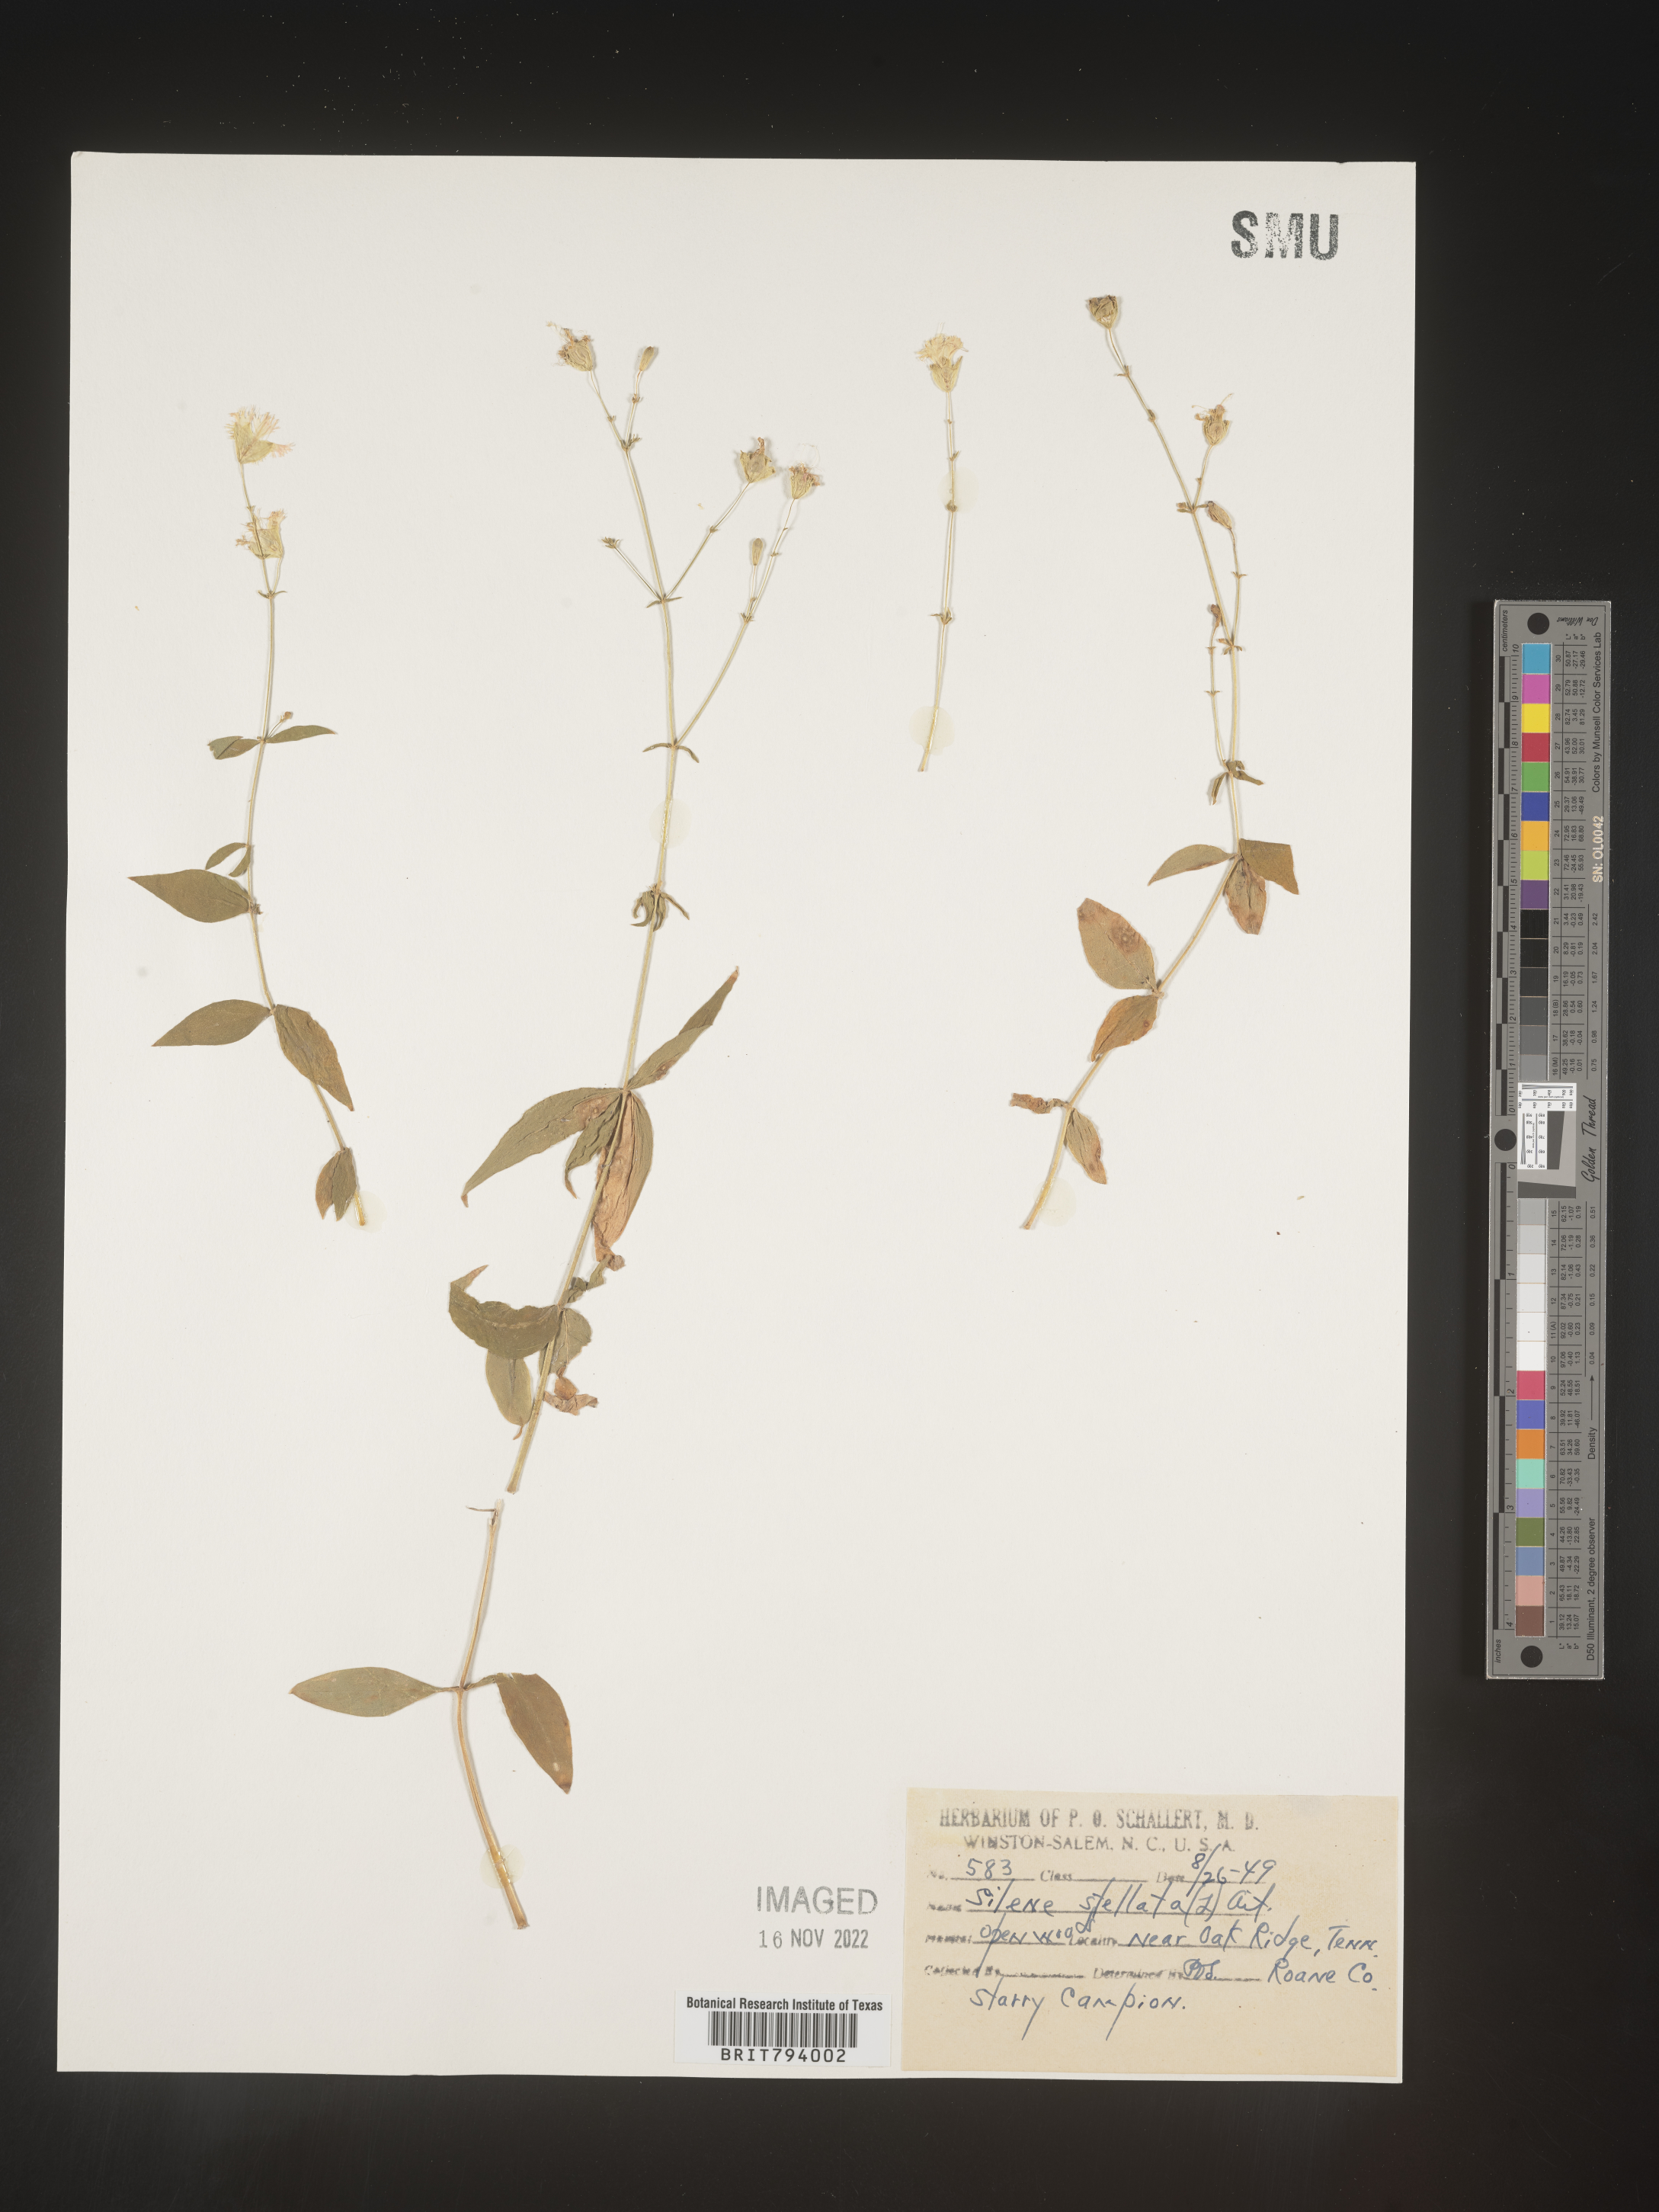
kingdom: Plantae
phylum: Tracheophyta
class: Magnoliopsida
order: Caryophyllales
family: Caryophyllaceae
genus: Silene
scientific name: Silene stellata
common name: Starry campion
